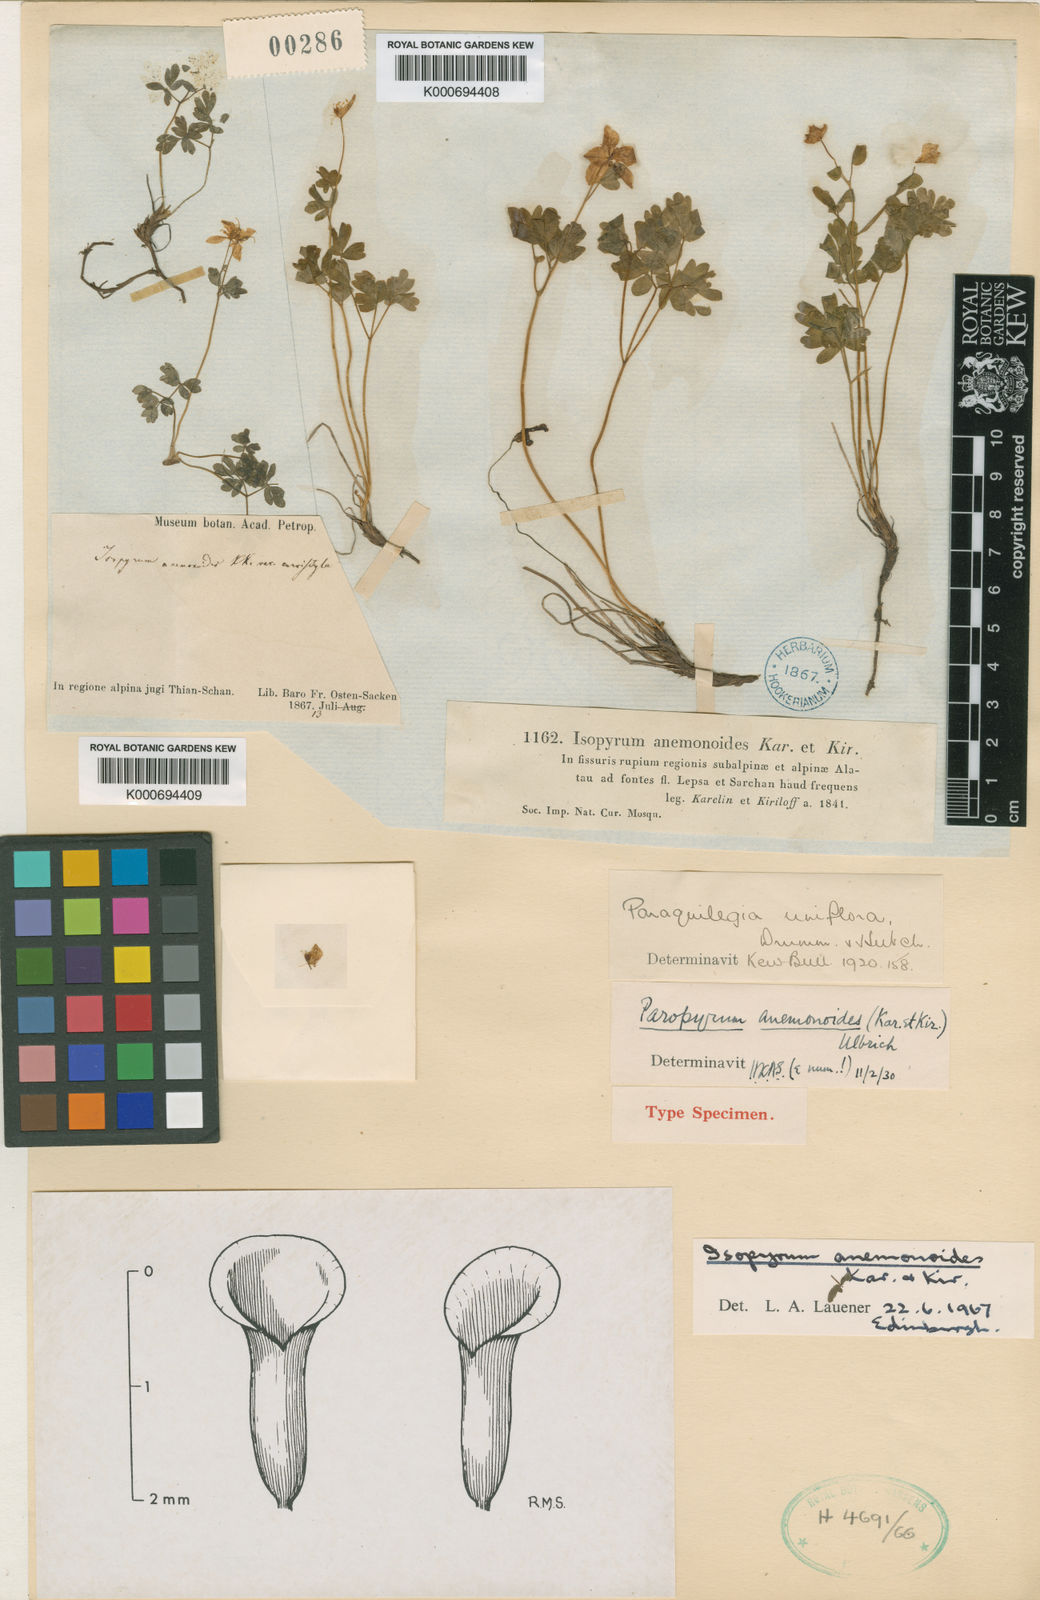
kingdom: Plantae
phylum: Tracheophyta
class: Magnoliopsida
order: Ranunculales
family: Ranunculaceae
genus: Isopyrum
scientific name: Isopyrum anemonoides
